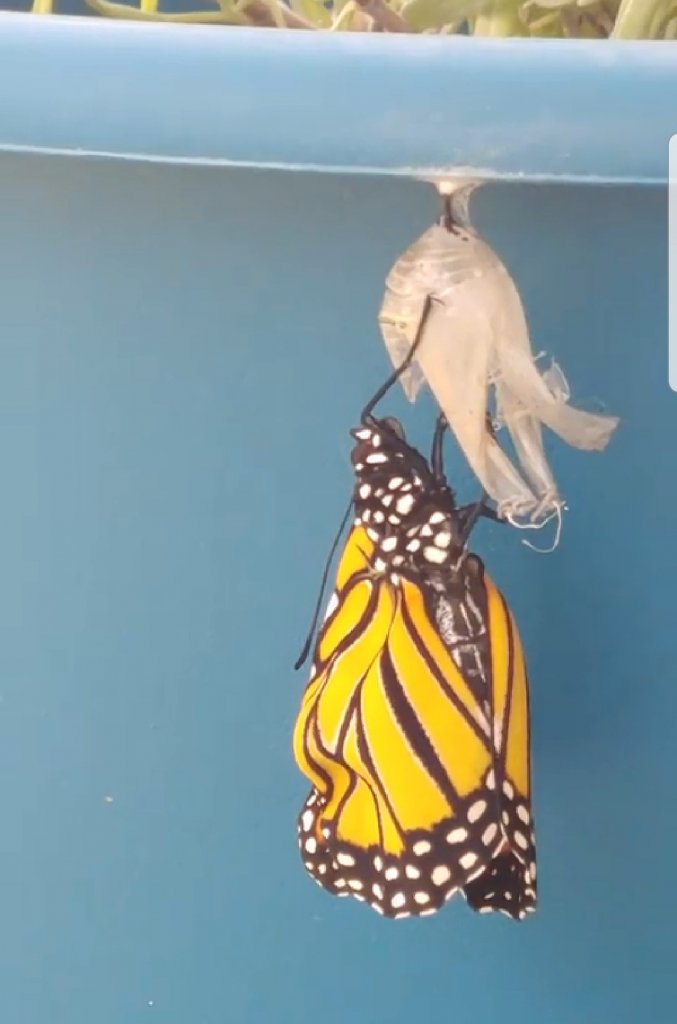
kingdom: Animalia
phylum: Arthropoda
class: Insecta
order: Lepidoptera
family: Nymphalidae
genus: Danaus
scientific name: Danaus plexippus
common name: Monarch
